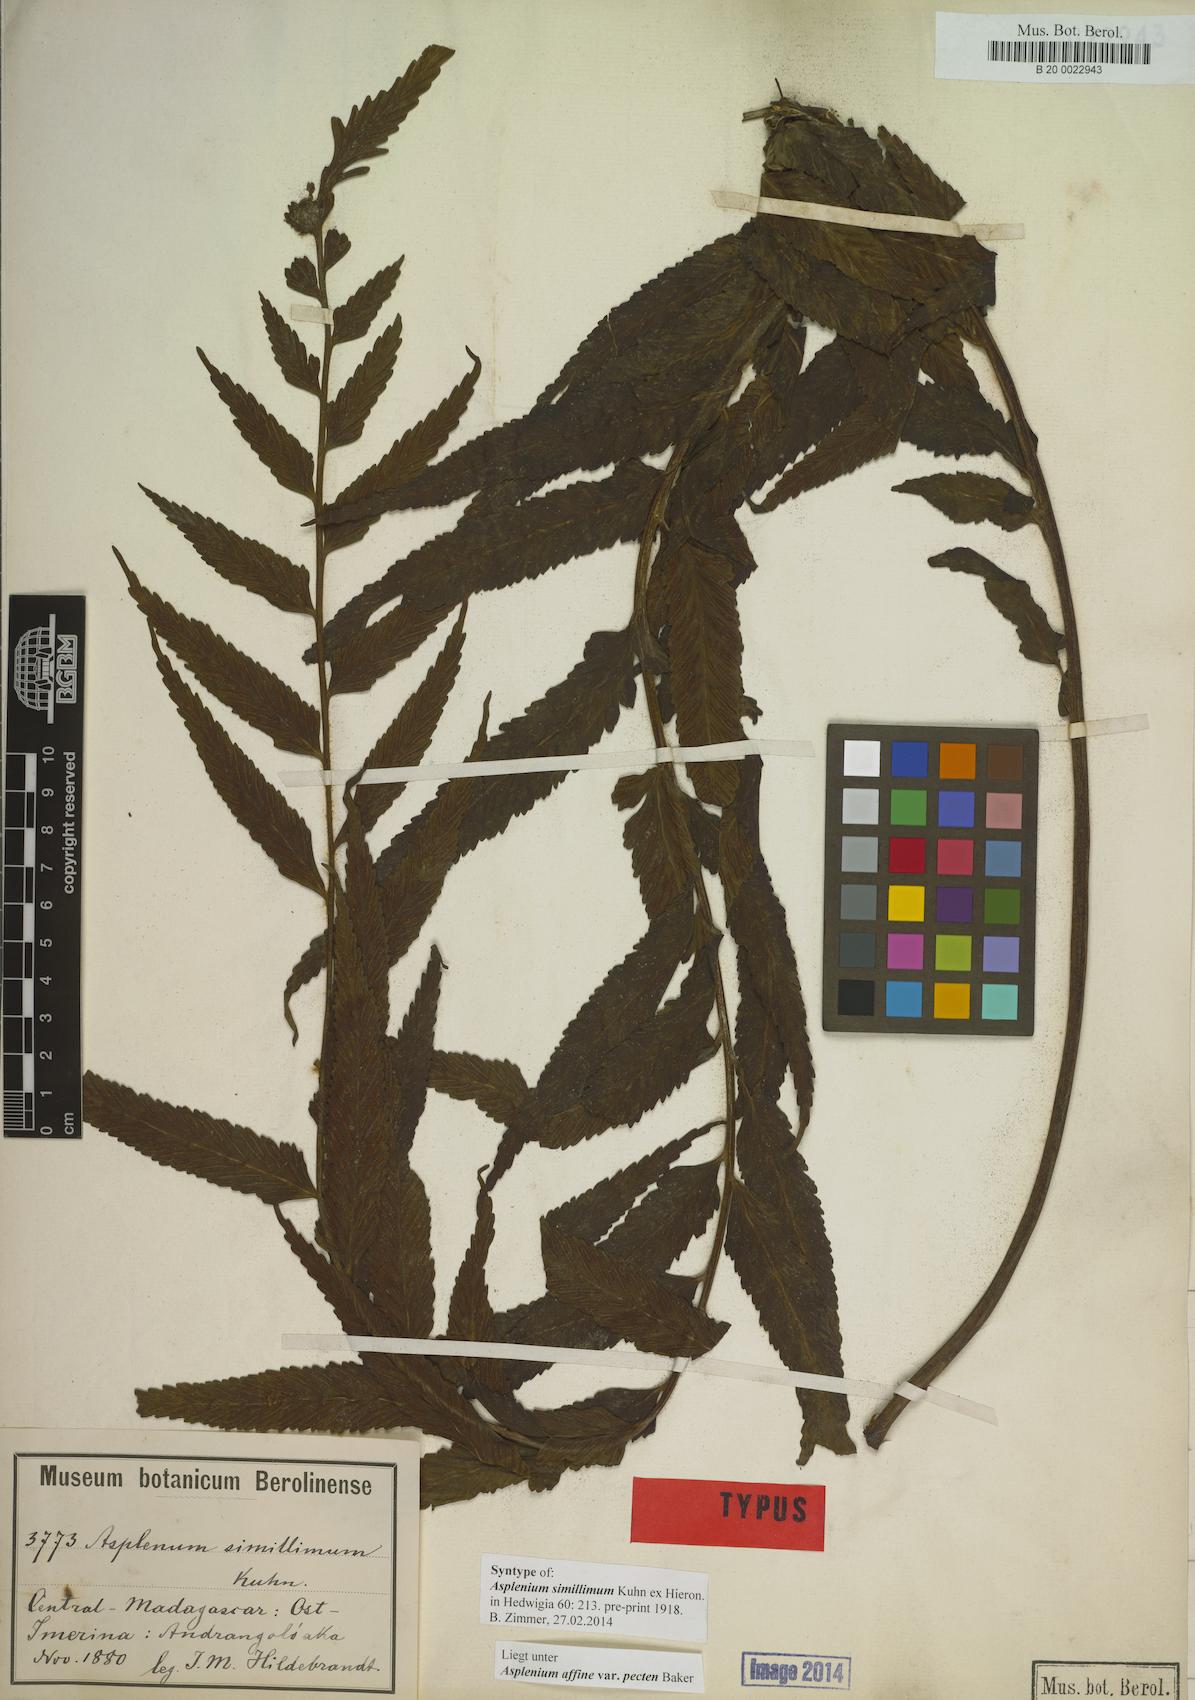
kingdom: Plantae
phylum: Tracheophyta
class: Polypodiopsida
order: Polypodiales
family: Aspleniaceae
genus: Asplenium
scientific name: Asplenium herpetopteris
